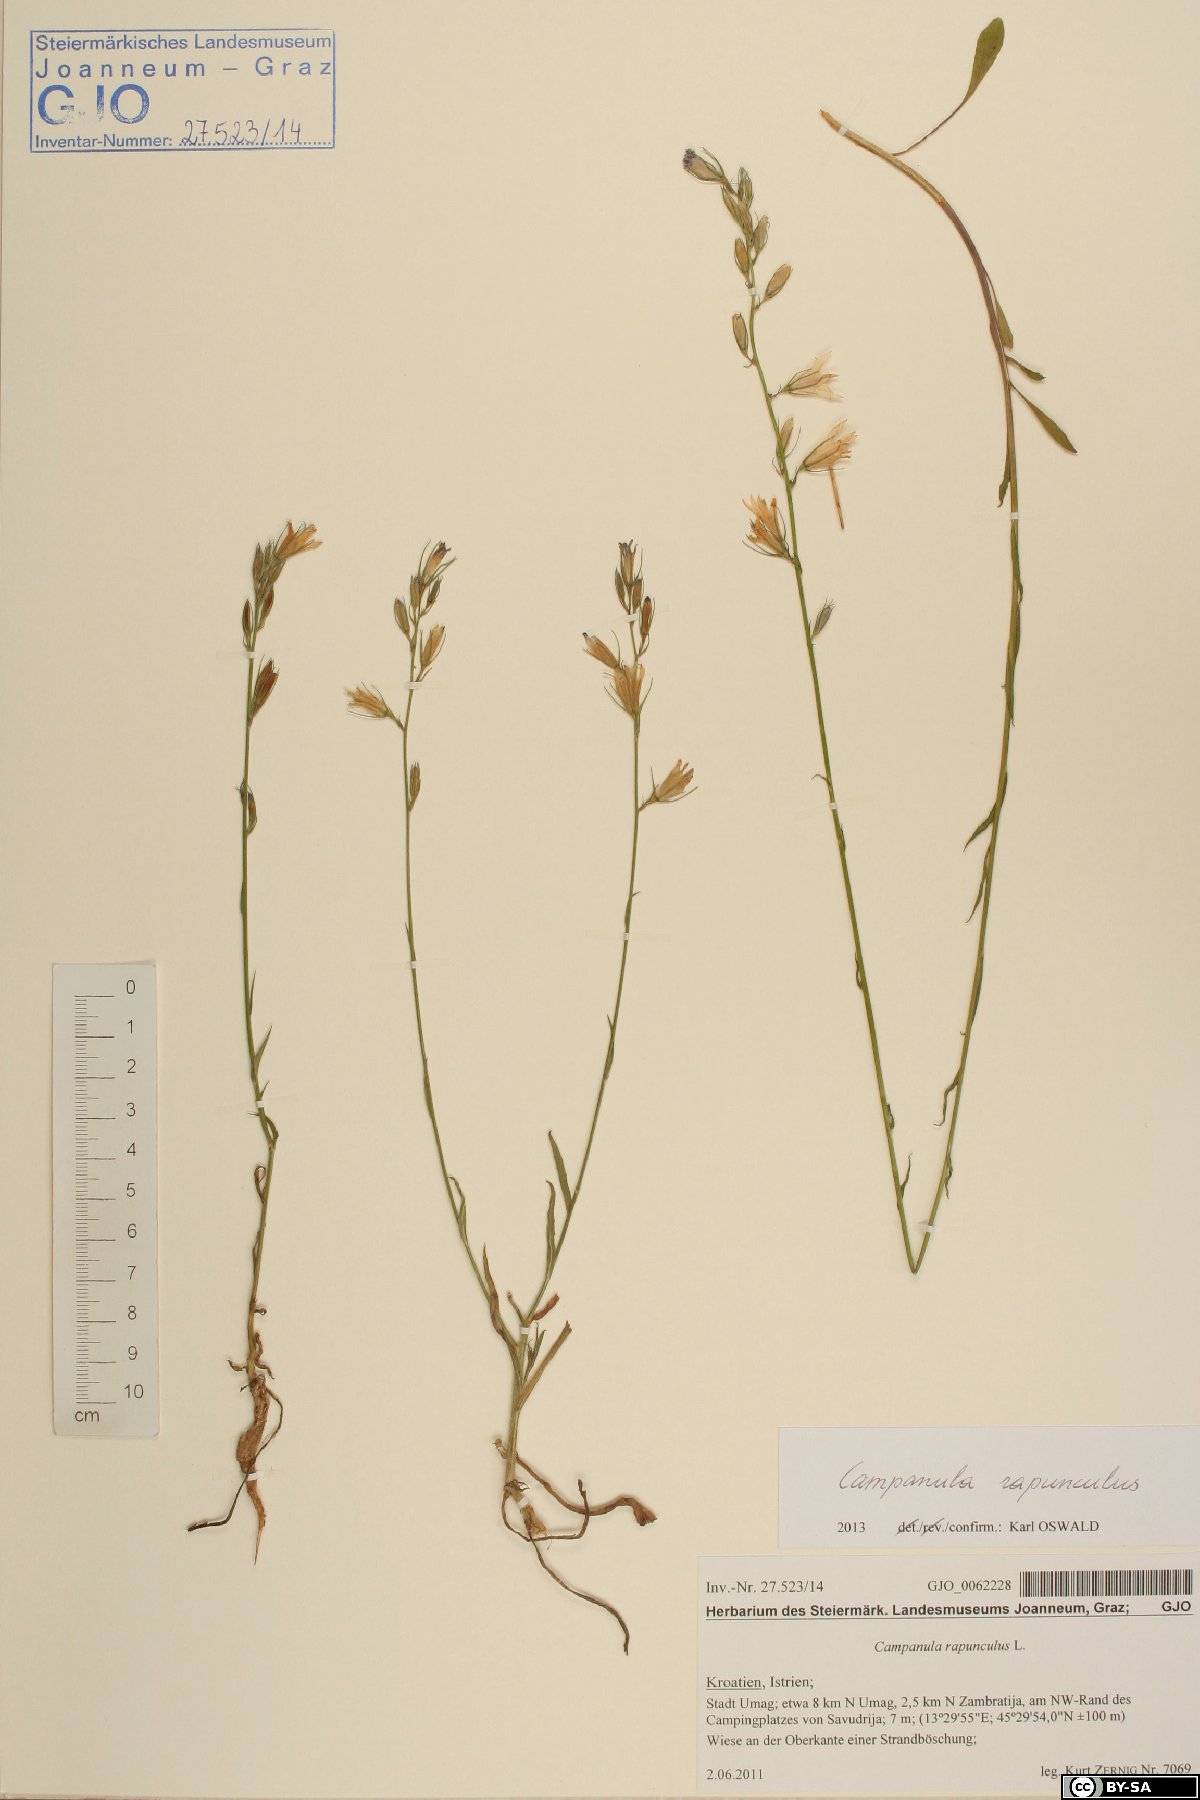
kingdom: Plantae
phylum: Tracheophyta
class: Magnoliopsida
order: Asterales
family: Campanulaceae
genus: Campanula
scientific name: Campanula rapunculus
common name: Rampion bellflower
